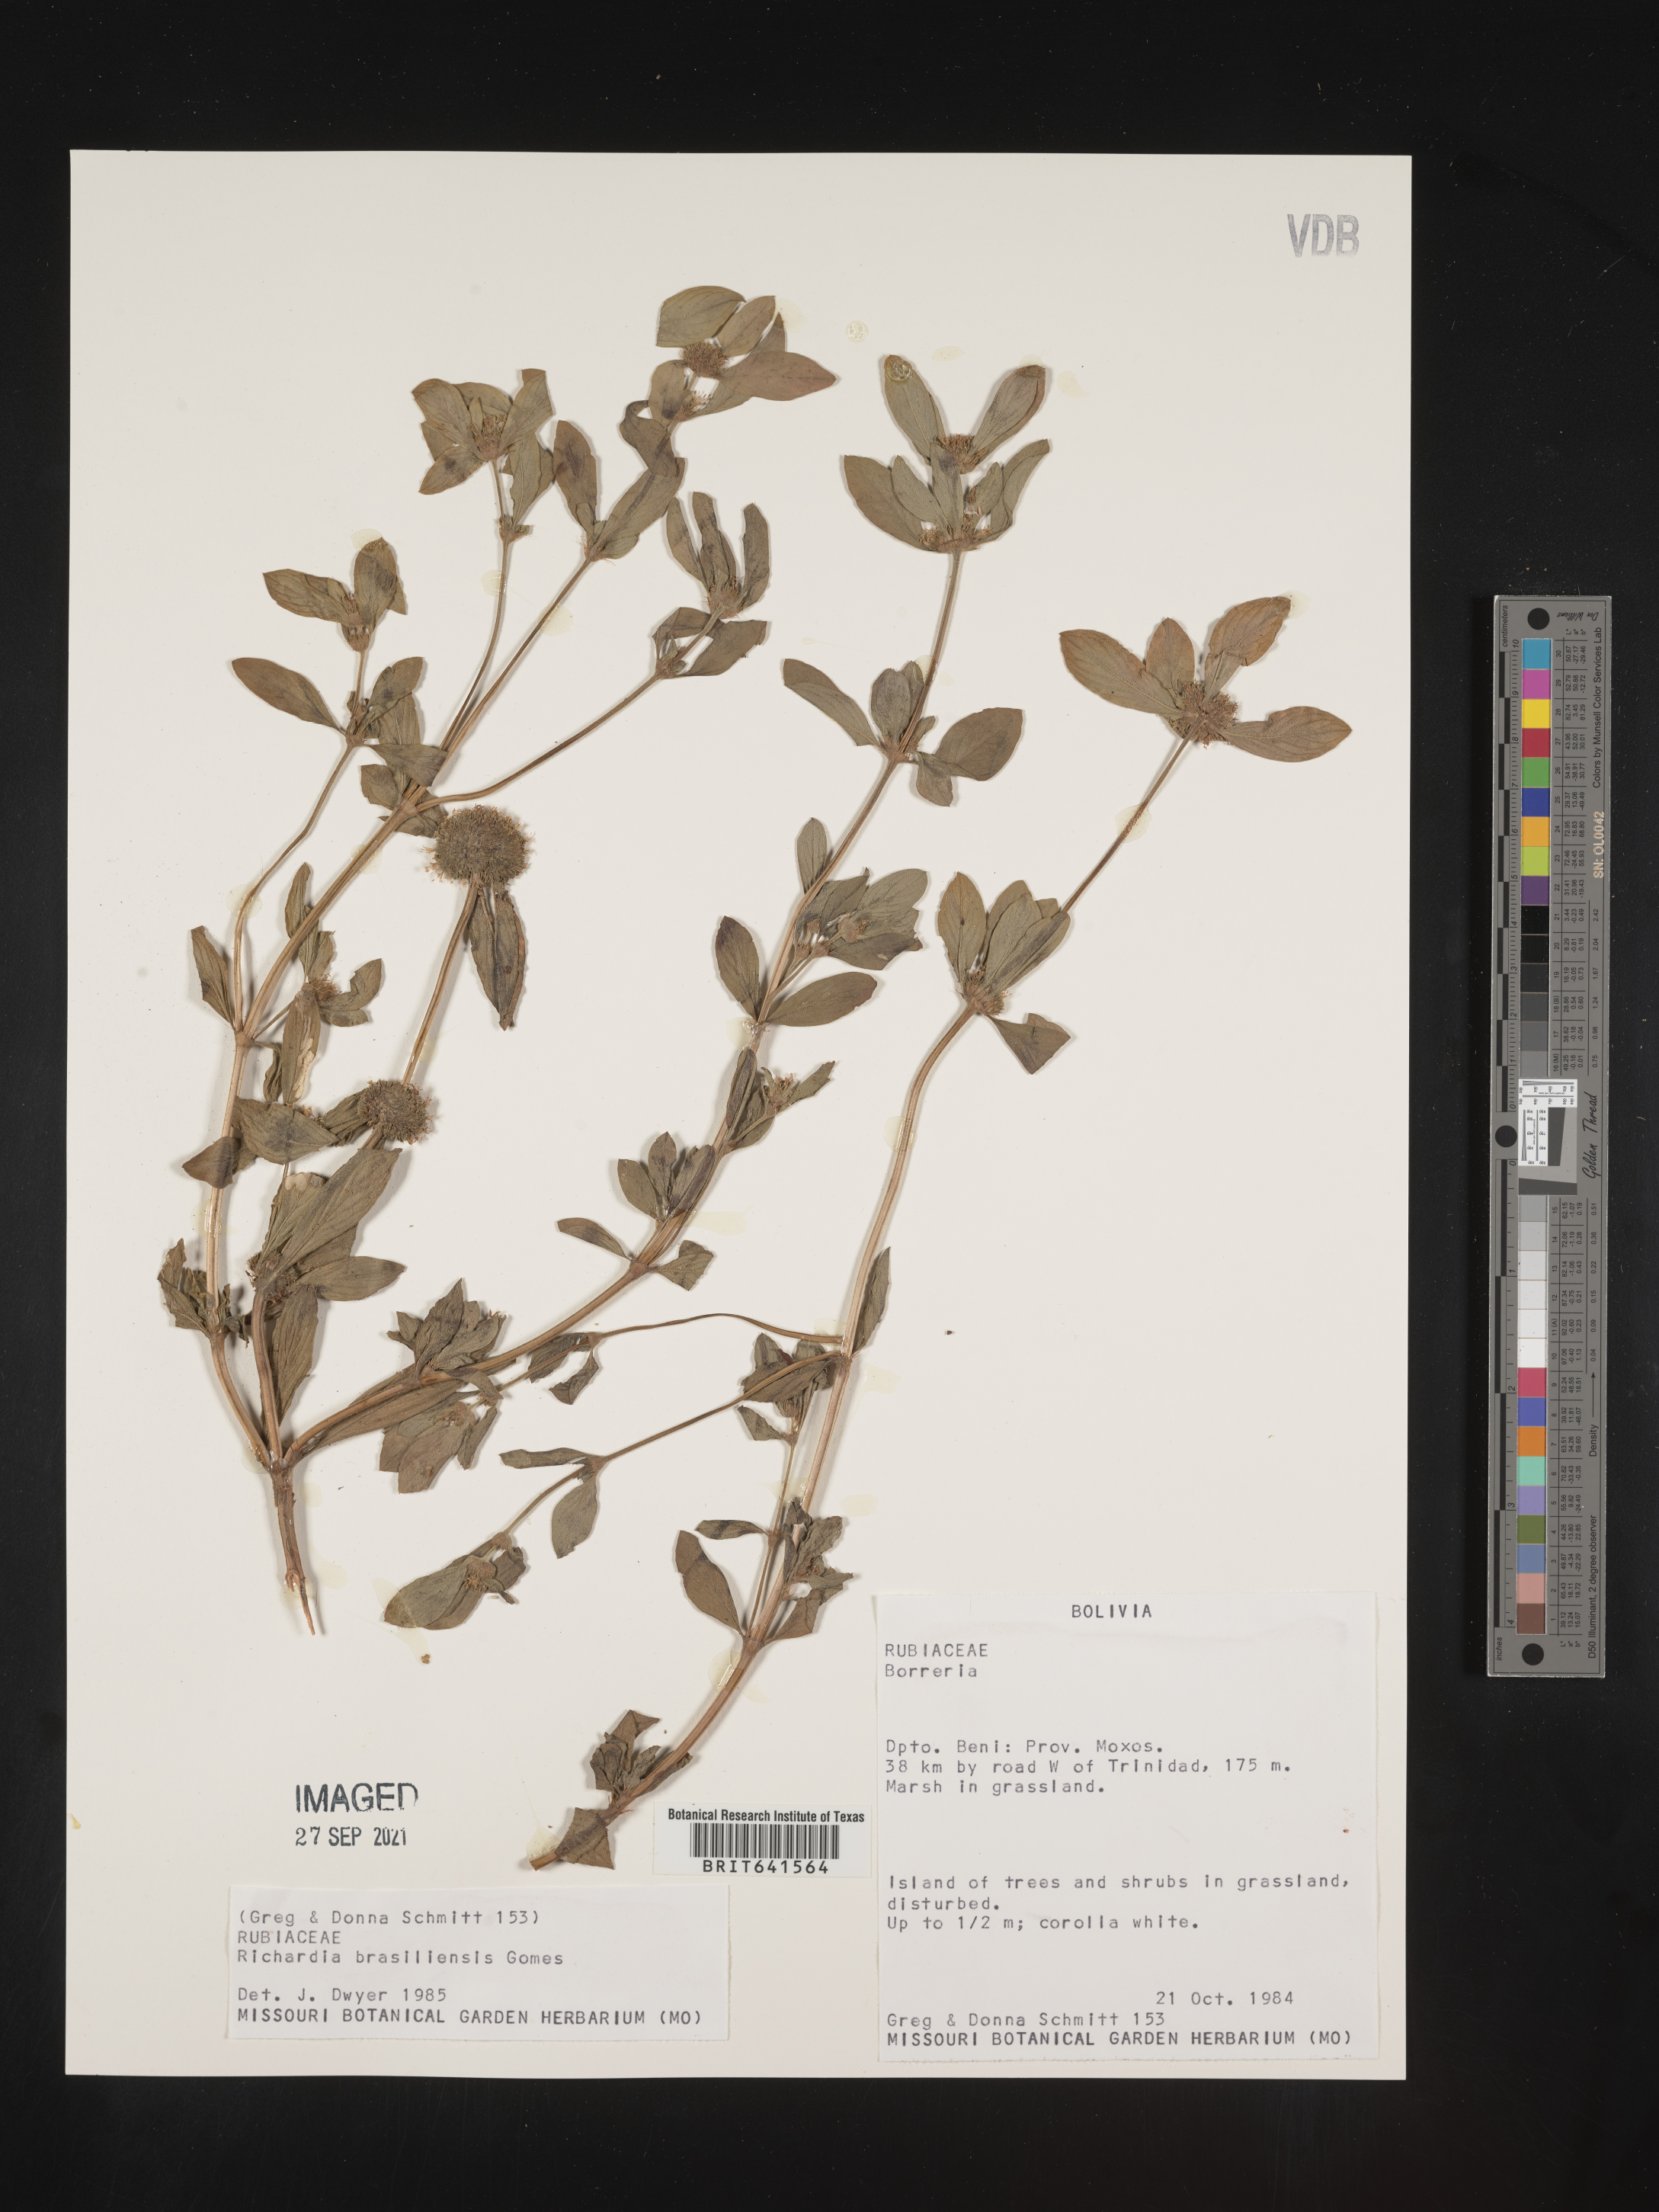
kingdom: Plantae
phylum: Tracheophyta
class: Magnoliopsida
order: Gentianales
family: Rubiaceae
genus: Richardia
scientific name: Richardia
